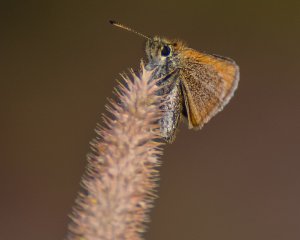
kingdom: Animalia
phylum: Arthropoda
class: Insecta
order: Lepidoptera
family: Hesperiidae
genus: Thymelicus
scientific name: Thymelicus lineola
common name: European Skipper
